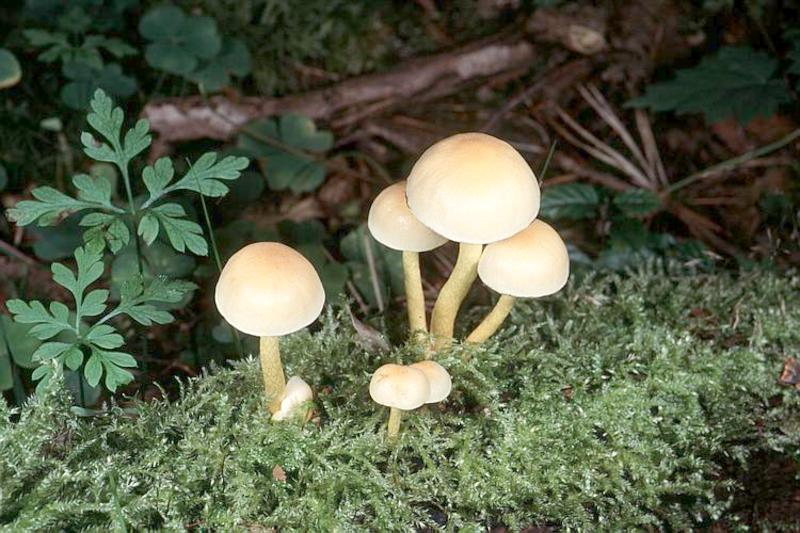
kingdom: Fungi
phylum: Basidiomycota
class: Agaricomycetes
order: Agaricales
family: Strophariaceae
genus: Hypholoma
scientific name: Hypholoma fasciculare
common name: Sulphur tuft
